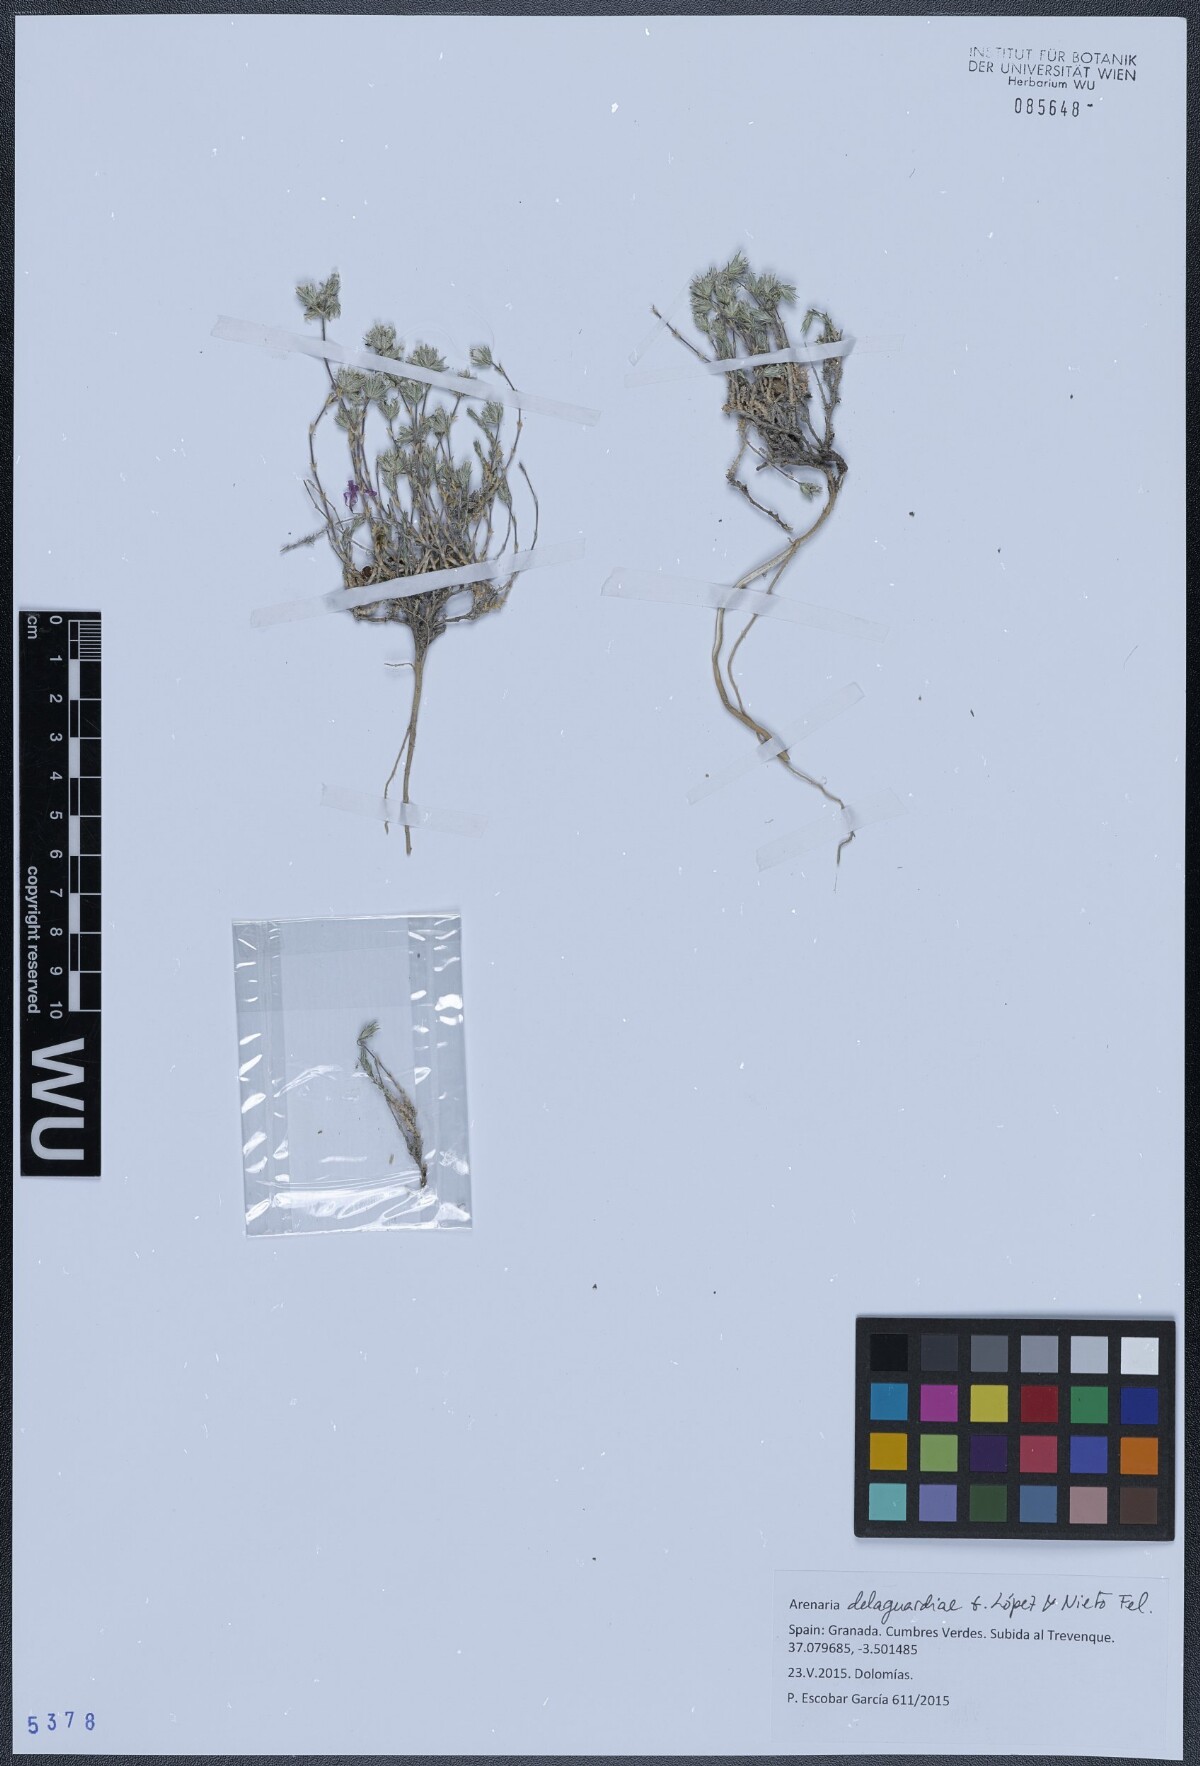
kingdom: Plantae
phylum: Tracheophyta
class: Magnoliopsida
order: Caryophyllales
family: Caryophyllaceae
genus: Arenaria
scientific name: Arenaria delaguardiae
